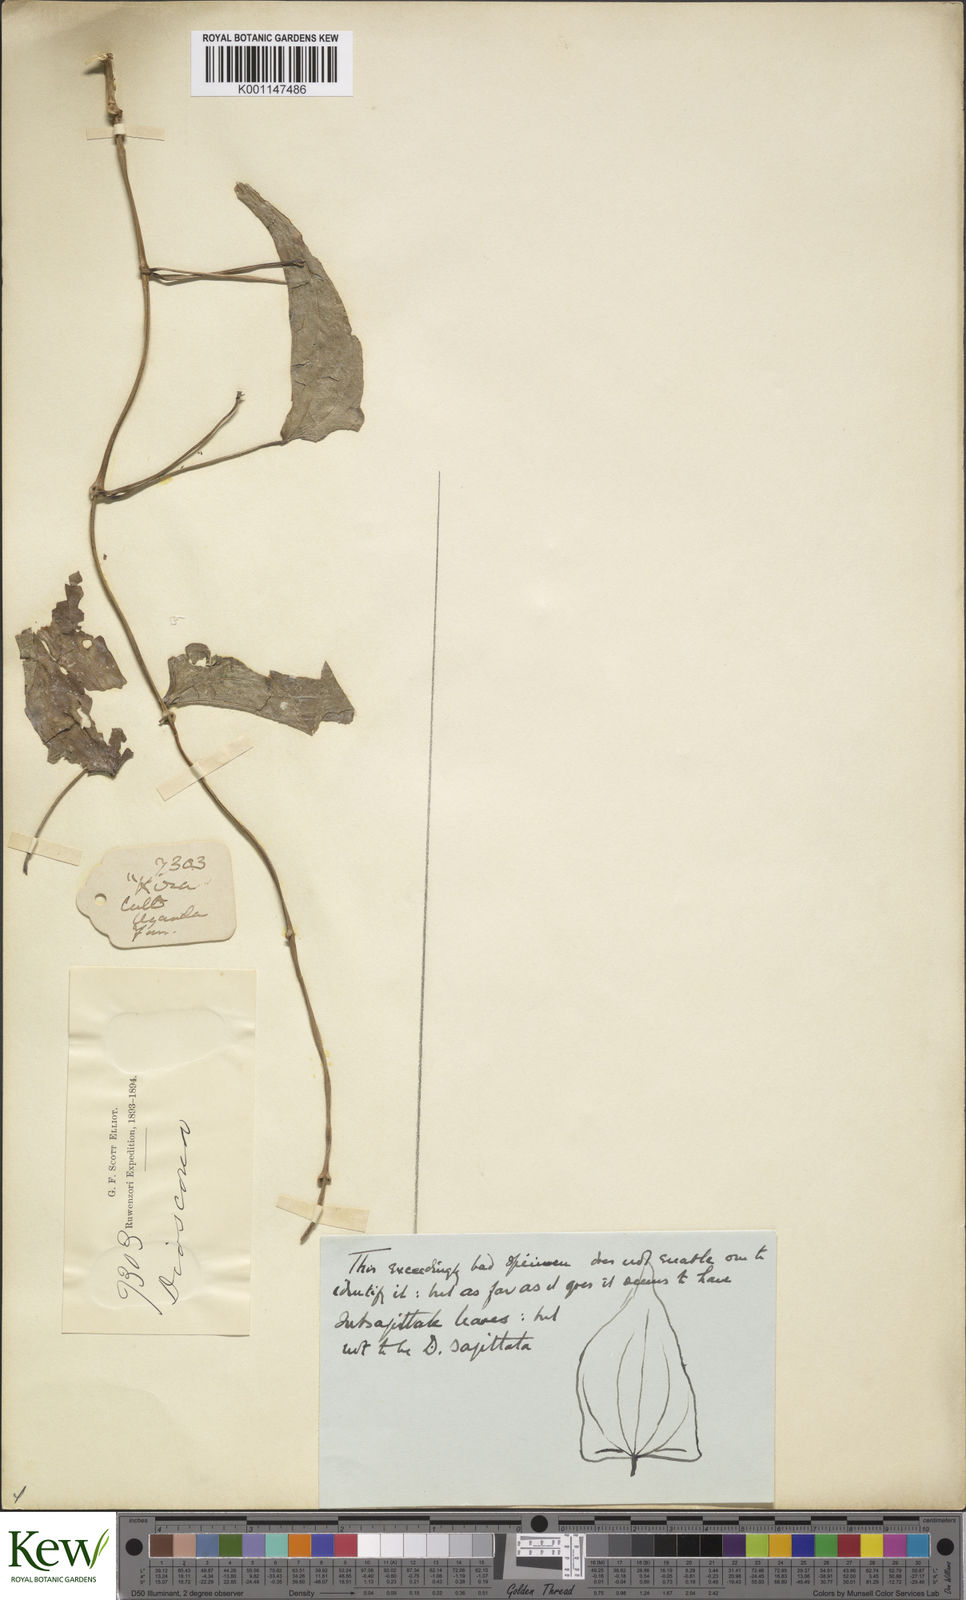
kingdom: Plantae
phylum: Tracheophyta
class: Liliopsida
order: Dioscoreales
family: Dioscoreaceae
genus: Dioscorea
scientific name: Dioscorea
